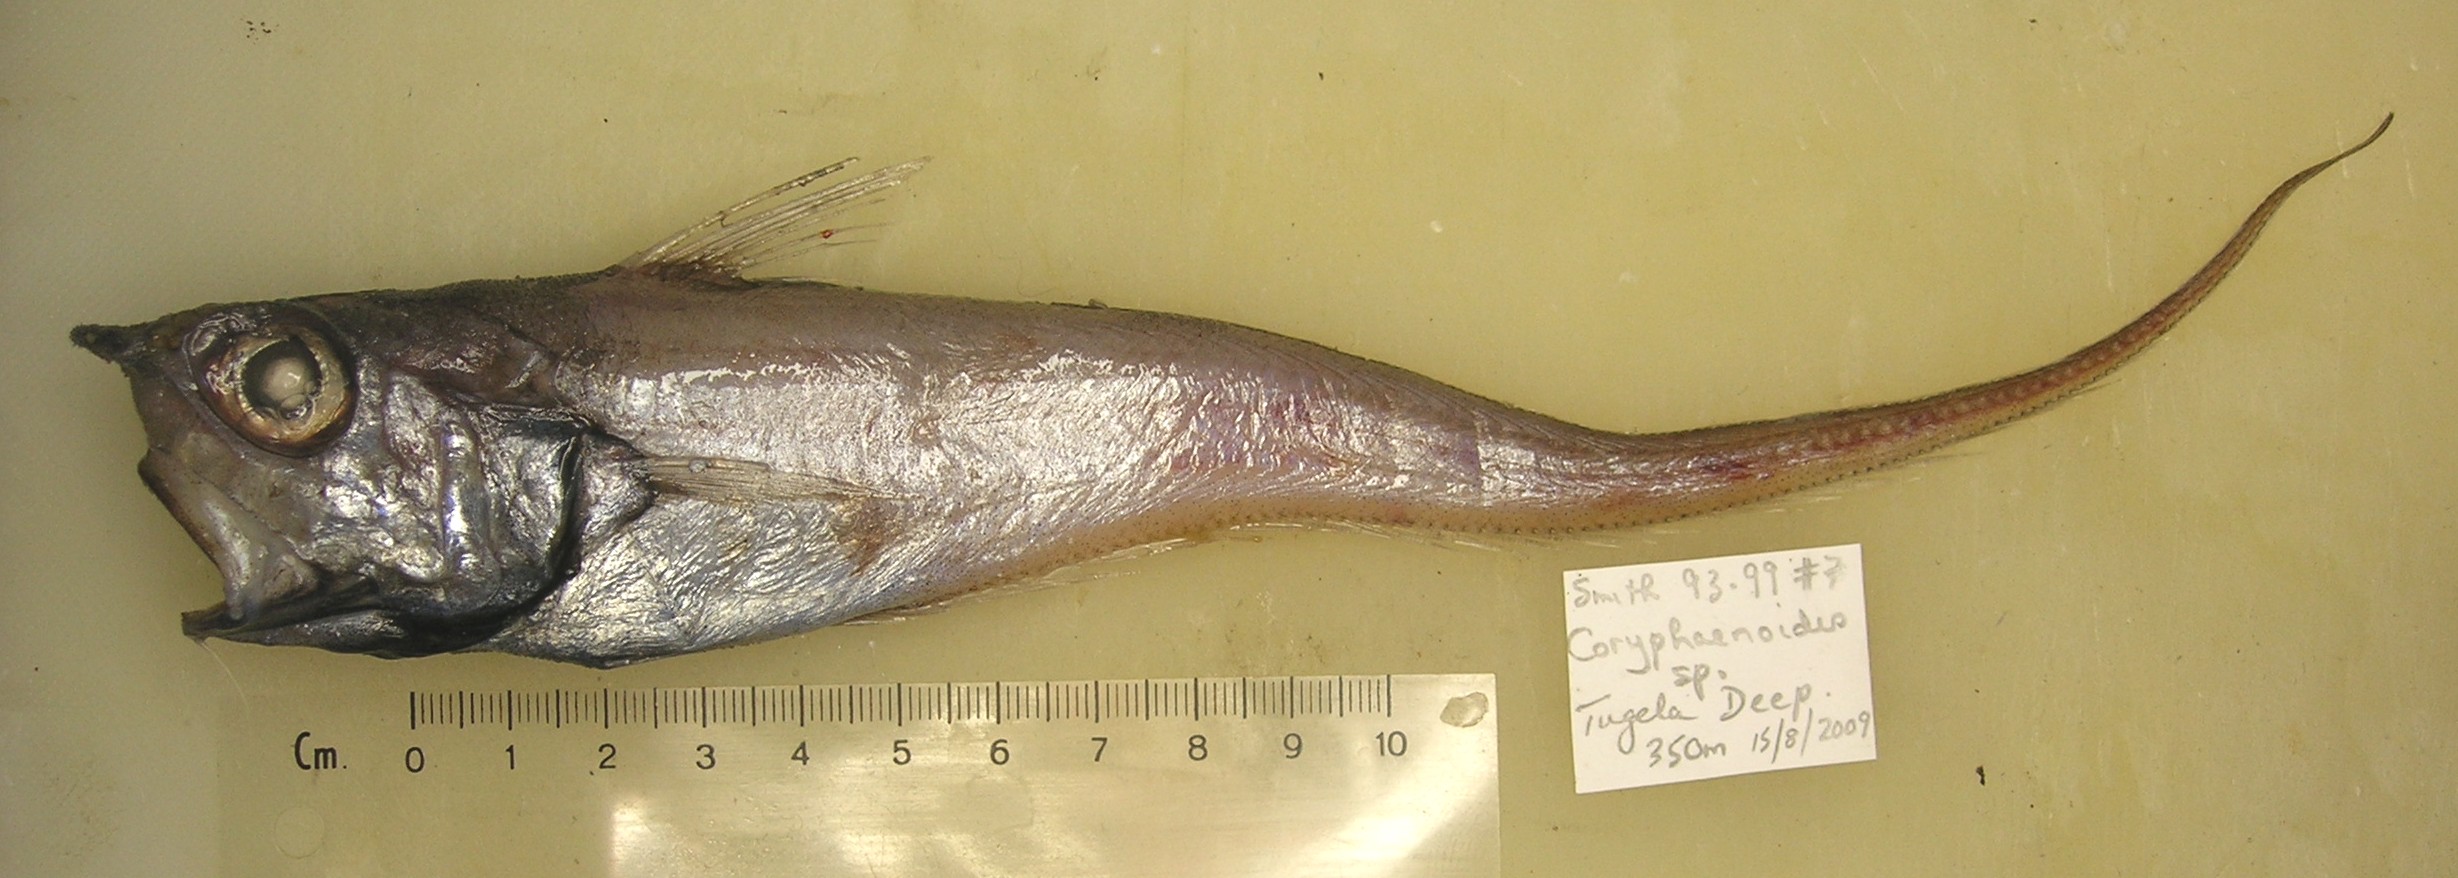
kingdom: Animalia
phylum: Chordata
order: Gadiformes
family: Macrouridae
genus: Coryphaenoides
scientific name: Coryphaenoides
